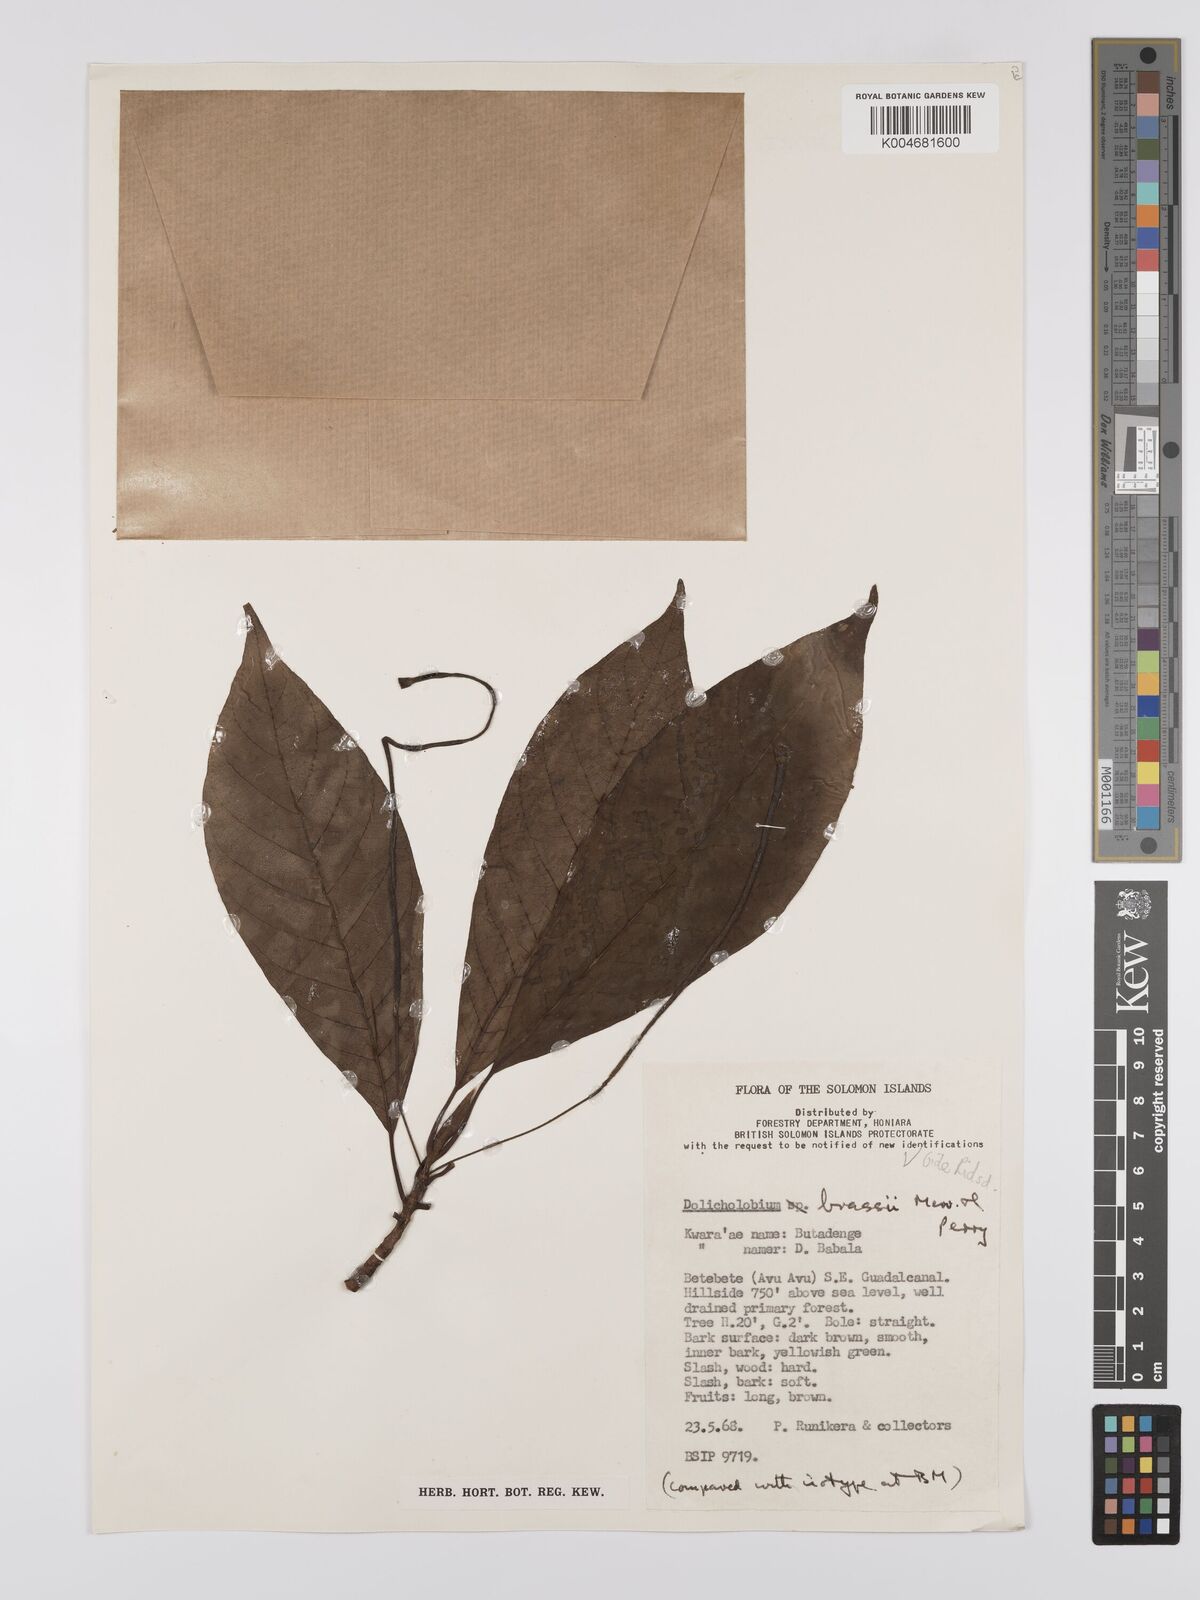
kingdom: Plantae
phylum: Tracheophyta
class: Magnoliopsida
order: Gentianales
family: Rubiaceae
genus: Dolicholobium
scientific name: Dolicholobium brassii
